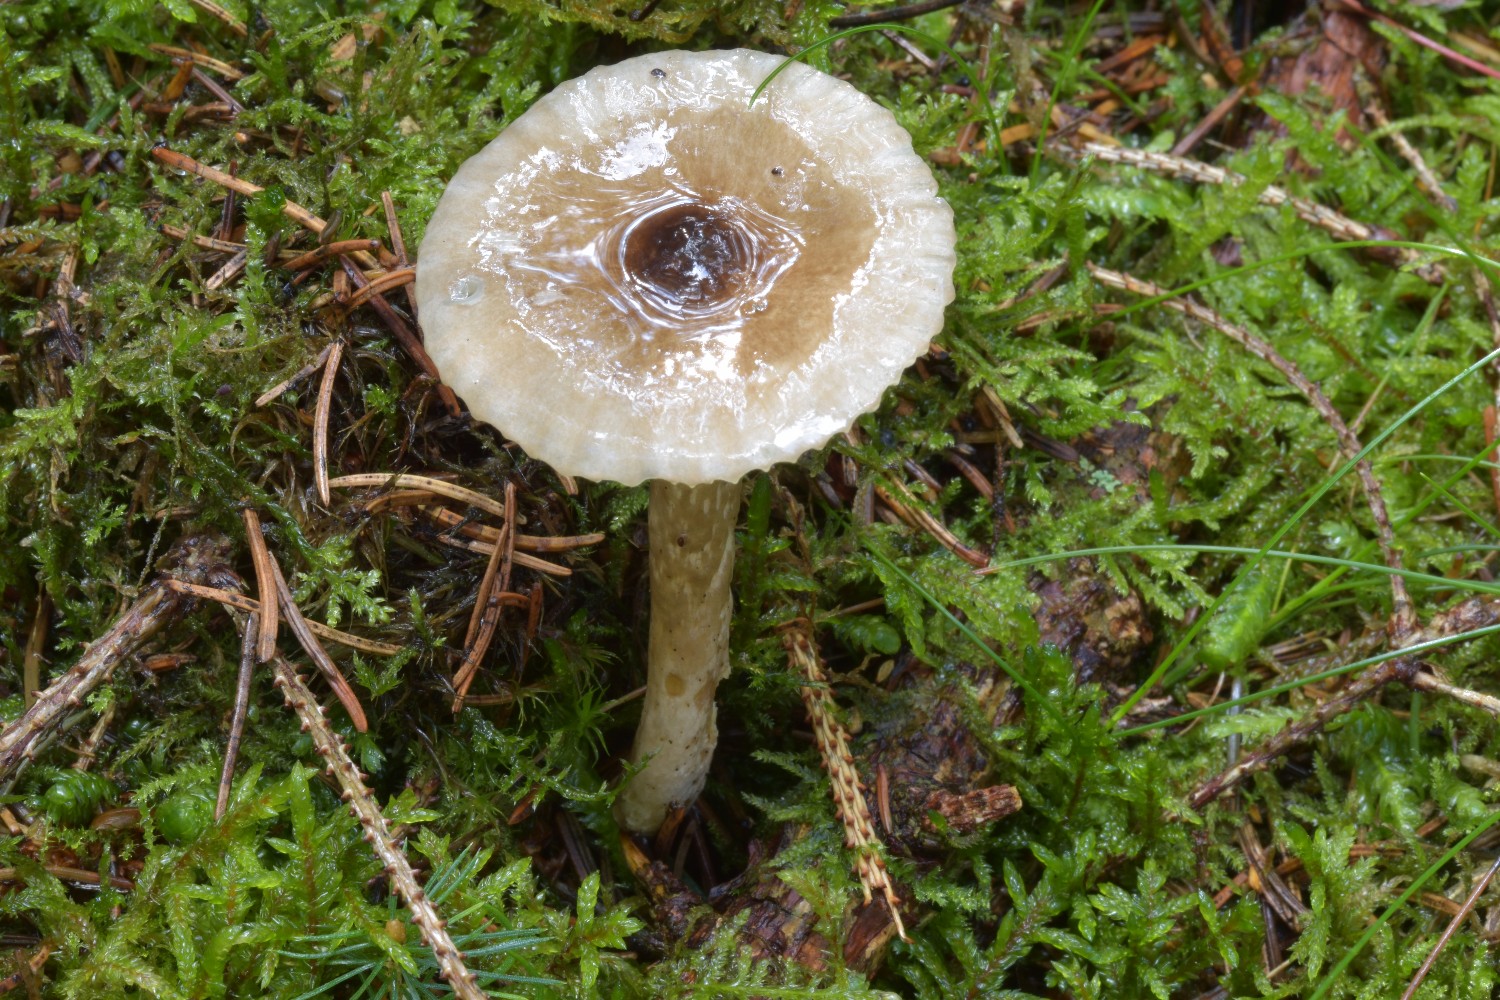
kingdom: Fungi
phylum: Basidiomycota
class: Agaricomycetes
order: Agaricales
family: Hygrophoraceae
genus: Hygrophorus
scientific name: Hygrophorus olivaceoalbus
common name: hvidbrun sneglehat
